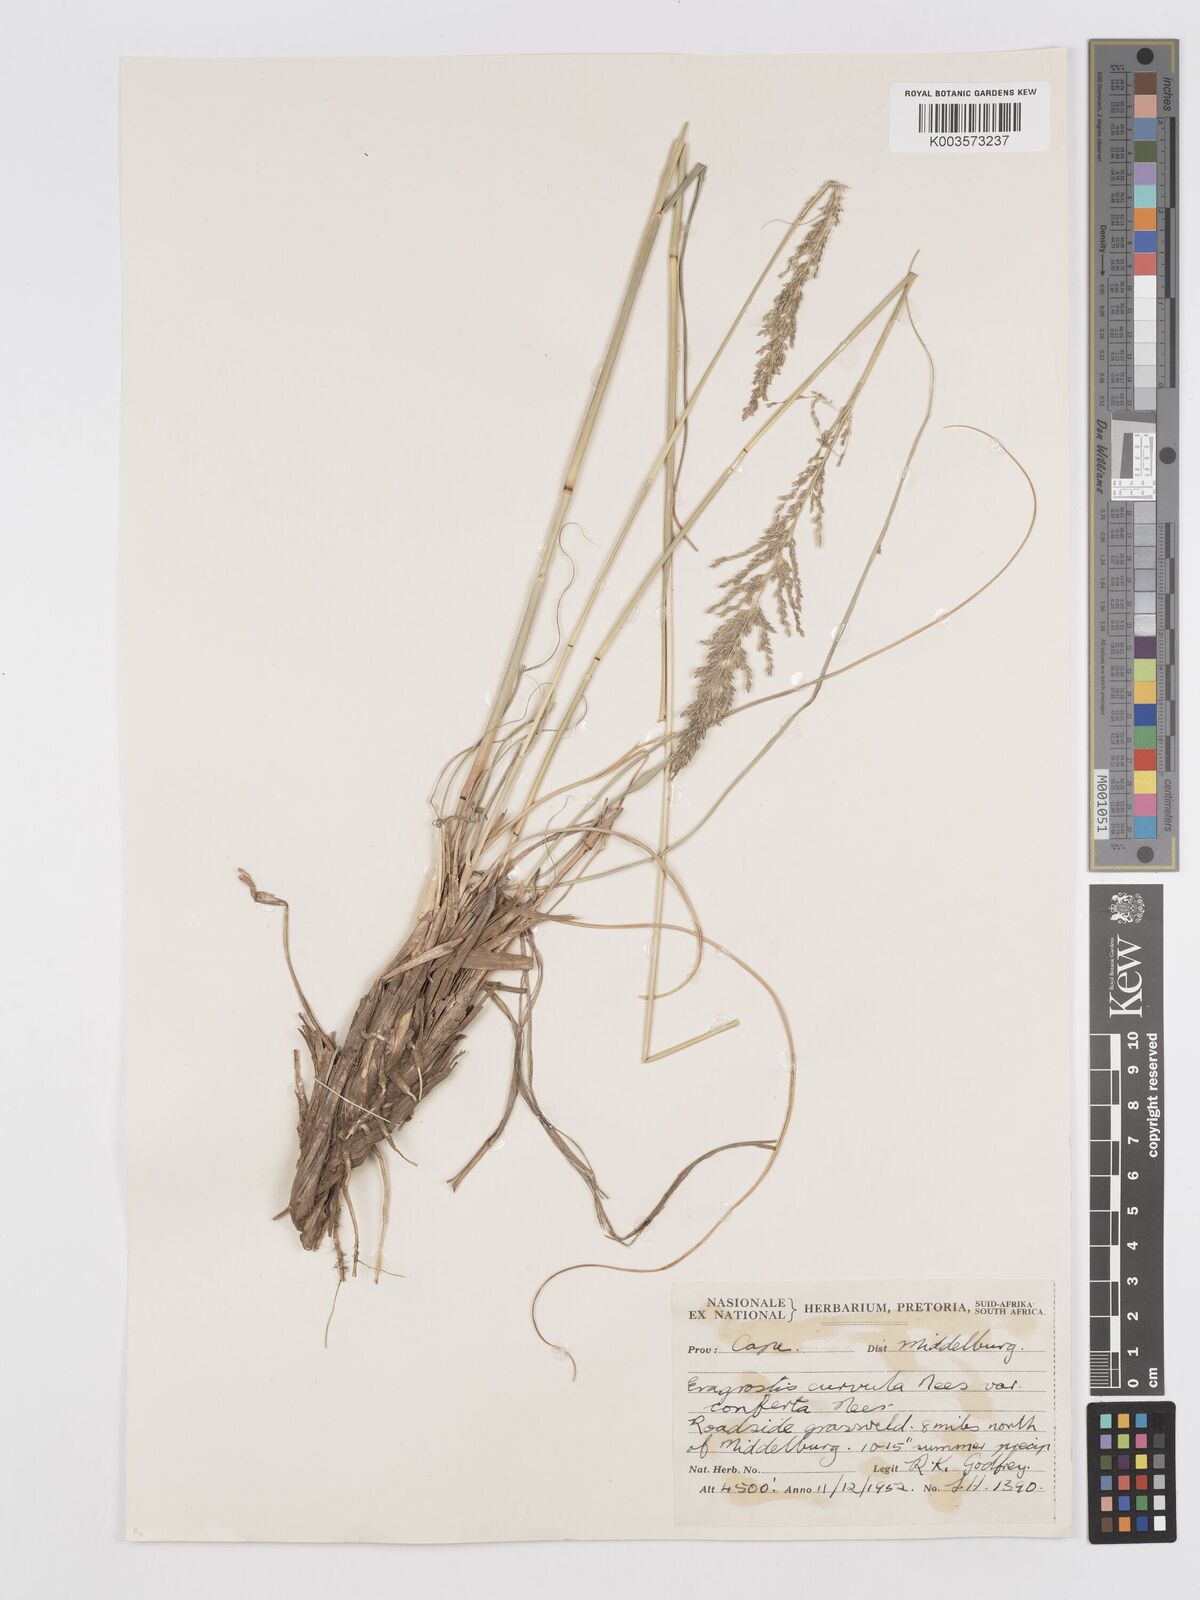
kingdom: Plantae
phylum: Tracheophyta
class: Liliopsida
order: Poales
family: Poaceae
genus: Eragrostis
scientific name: Eragrostis curvula
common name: African love-grass
